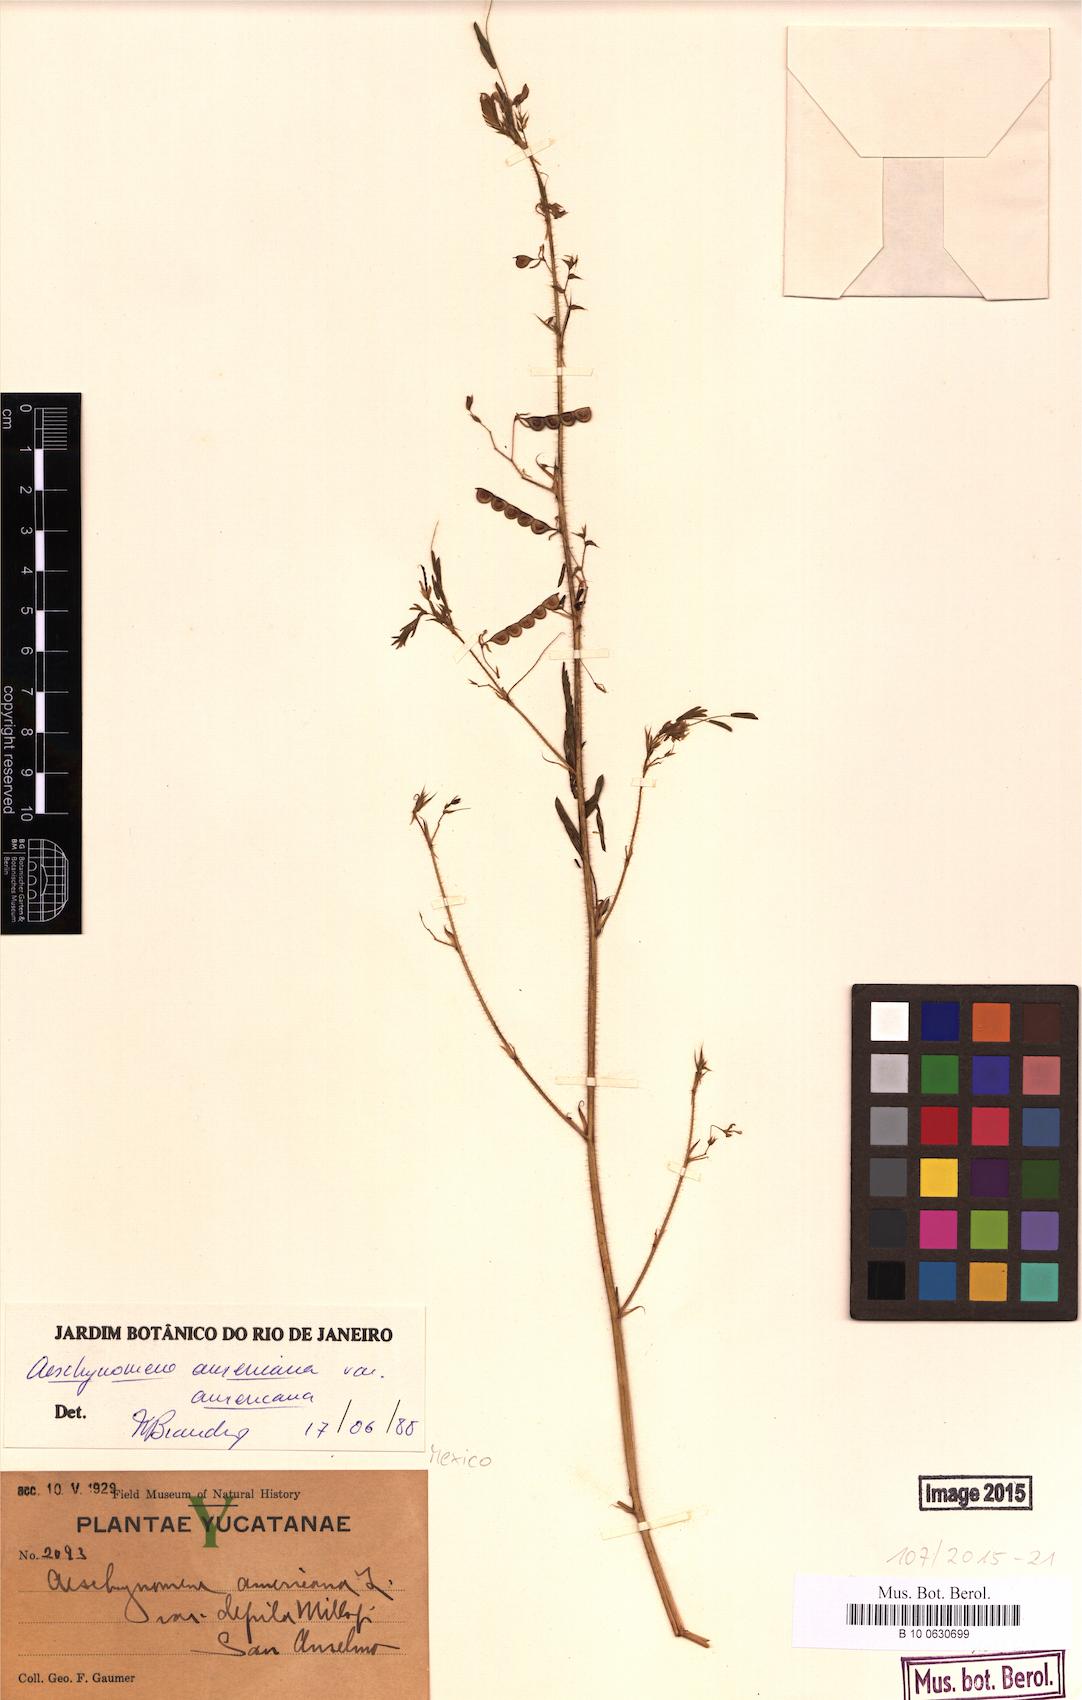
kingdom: Plantae
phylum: Tracheophyta
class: Magnoliopsida
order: Fabales
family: Fabaceae
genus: Aeschynomene
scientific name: Aeschynomene americana
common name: Joint-vetch
